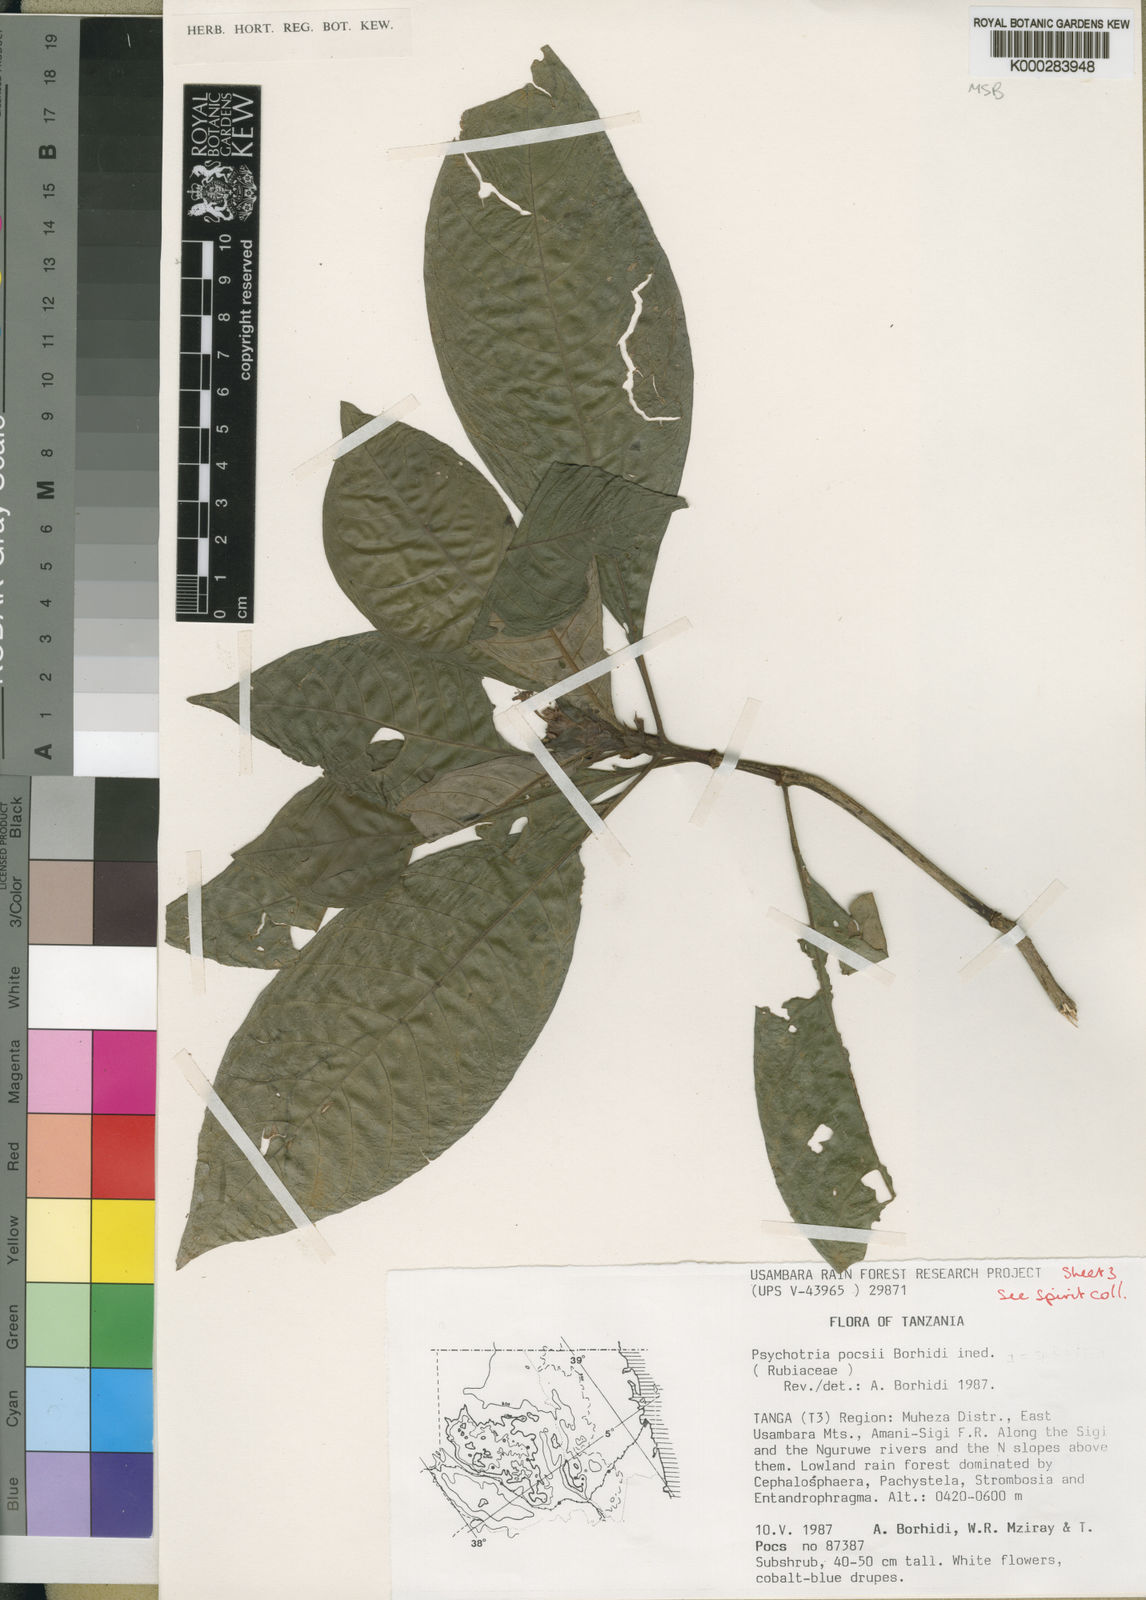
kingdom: Plantae
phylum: Tracheophyta
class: Magnoliopsida
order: Gentianales
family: Rubiaceae
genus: Psychotria
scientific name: Psychotria pocsii
